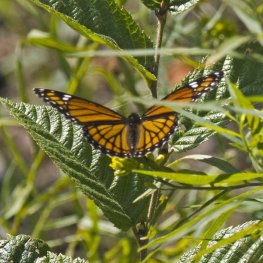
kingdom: Animalia
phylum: Arthropoda
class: Insecta
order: Lepidoptera
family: Nymphalidae
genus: Limenitis
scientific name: Limenitis archippus
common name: Viceroy
